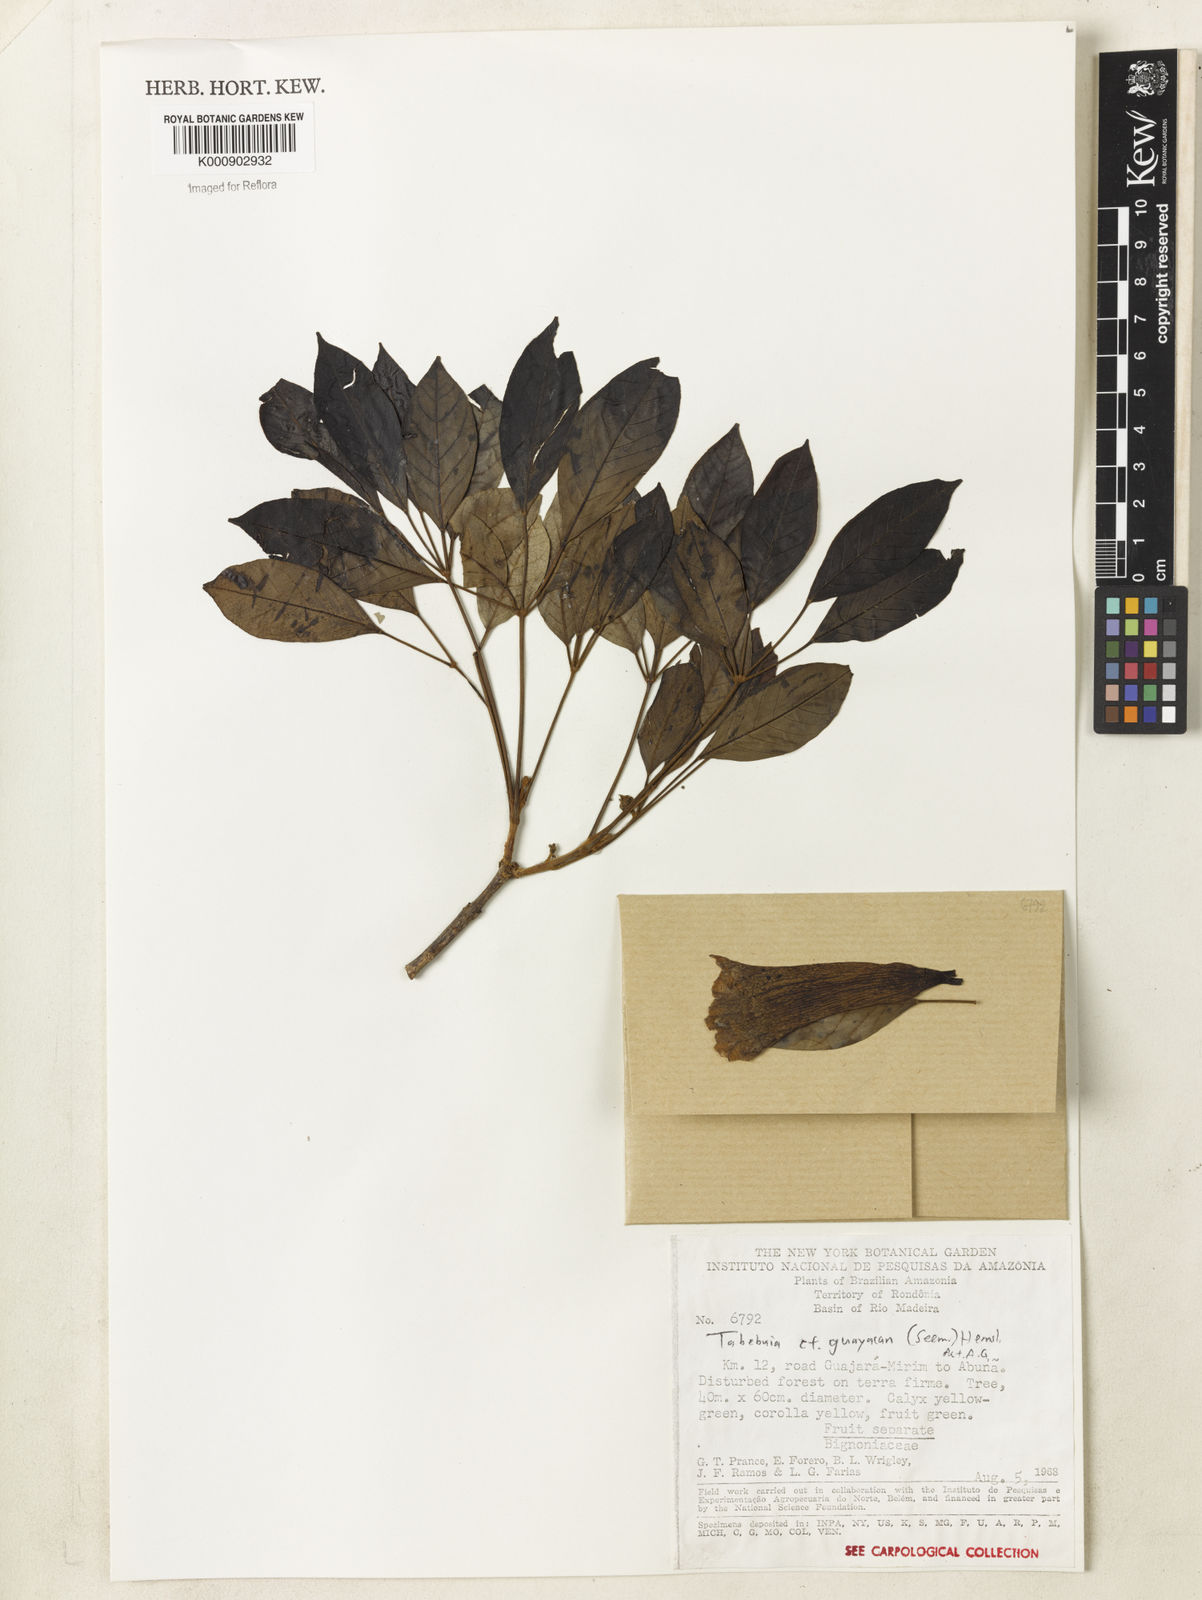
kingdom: Plantae
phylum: Tracheophyta
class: Magnoliopsida
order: Lamiales
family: Bignoniaceae
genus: Handroanthus
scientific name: Handroanthus guayacan
